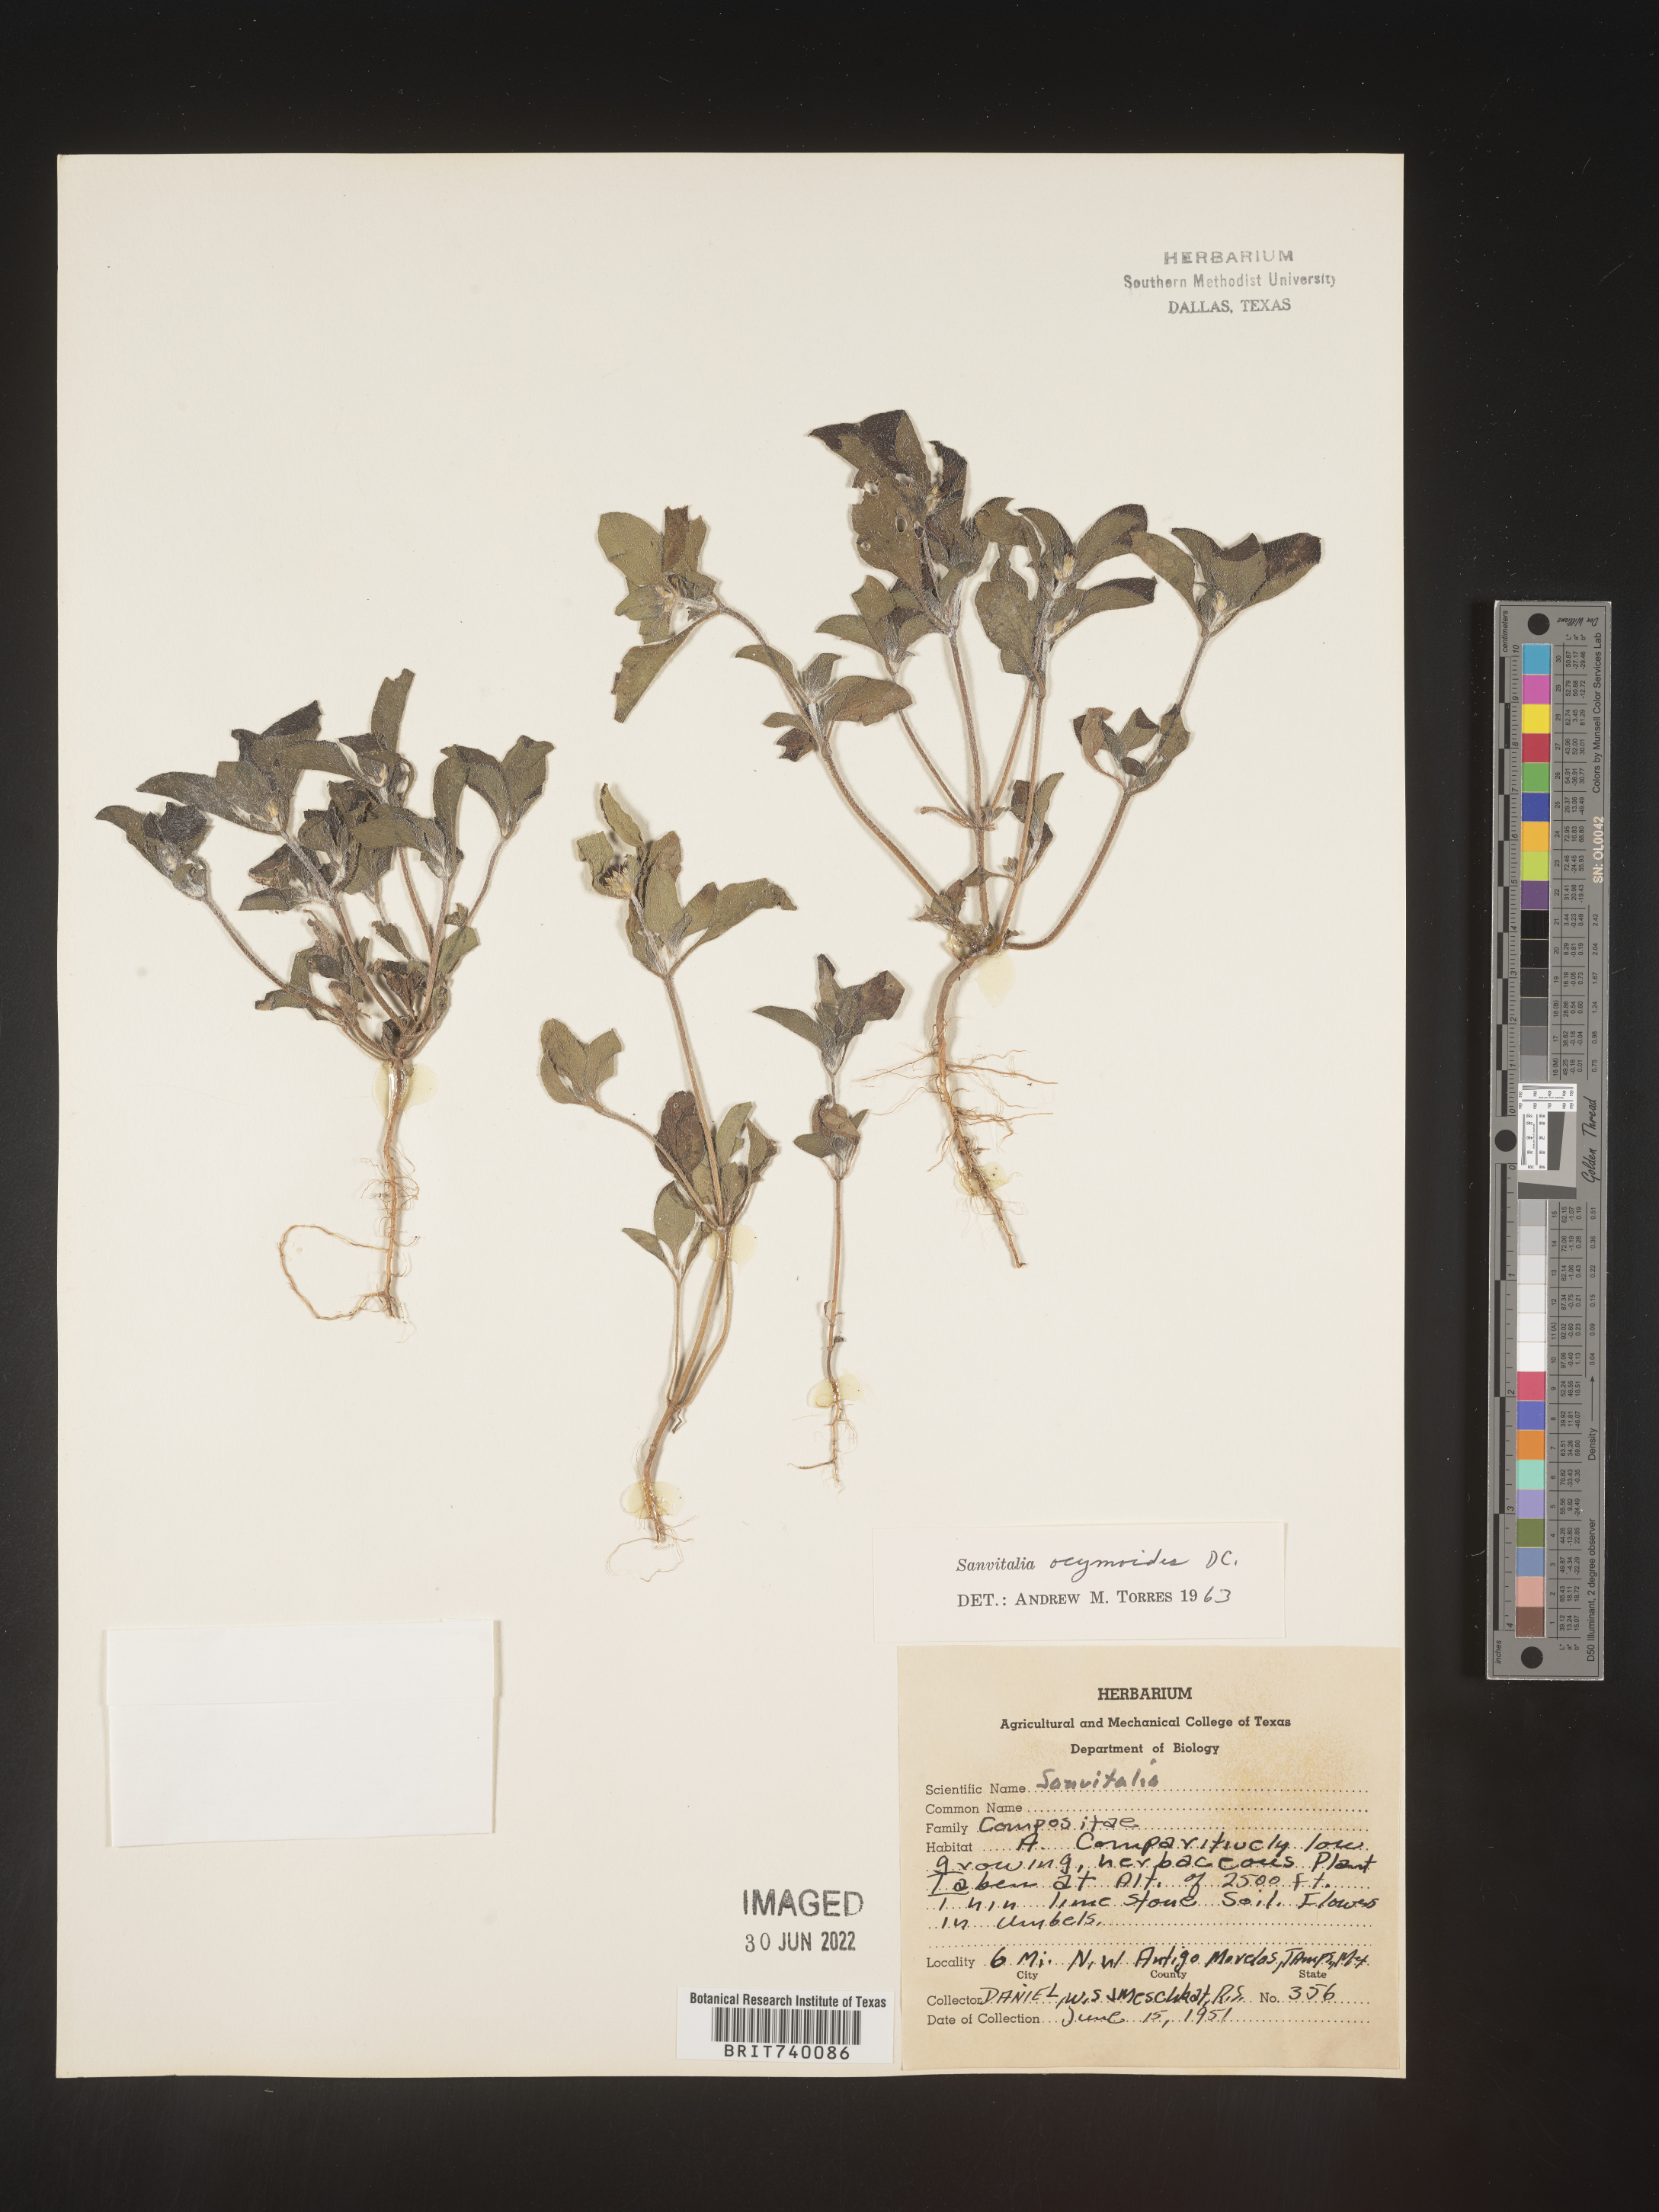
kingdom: Plantae
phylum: Tracheophyta
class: Magnoliopsida
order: Asterales
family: Asteraceae
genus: Sanvitalia
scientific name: Sanvitalia
